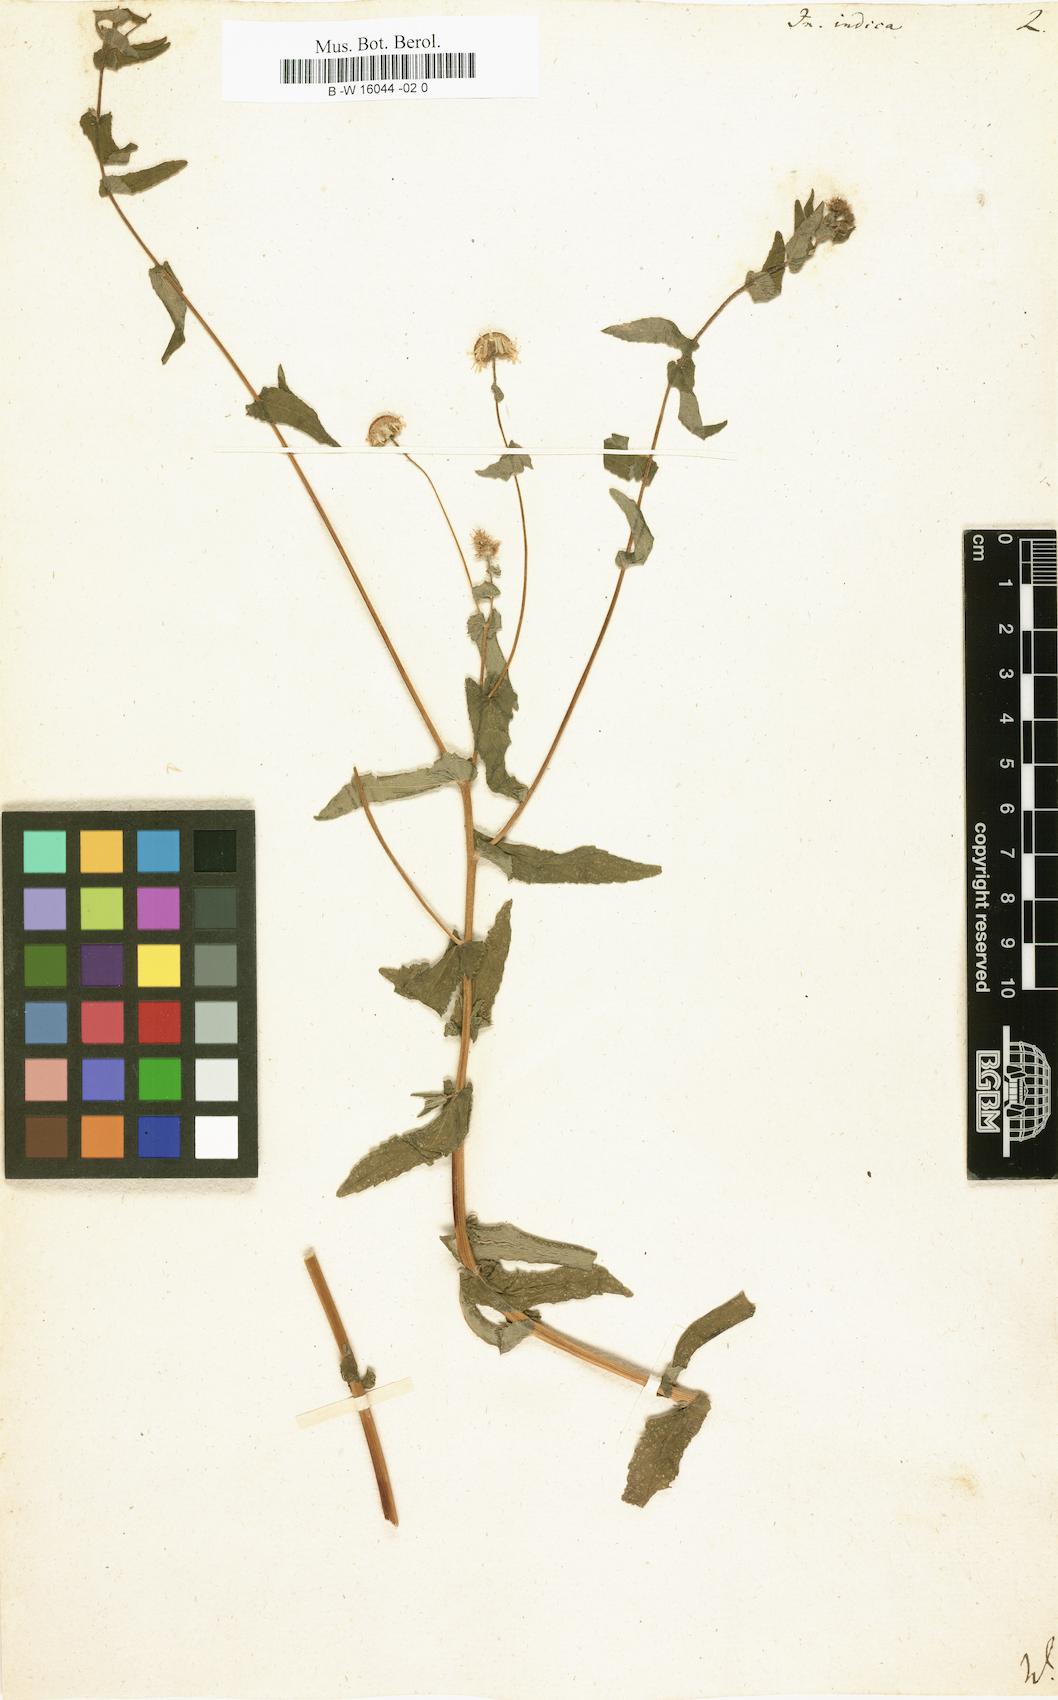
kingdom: Plantae
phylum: Tracheophyta
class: Magnoliopsida
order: Asterales
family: Asteraceae
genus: Inula
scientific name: Inula indica
